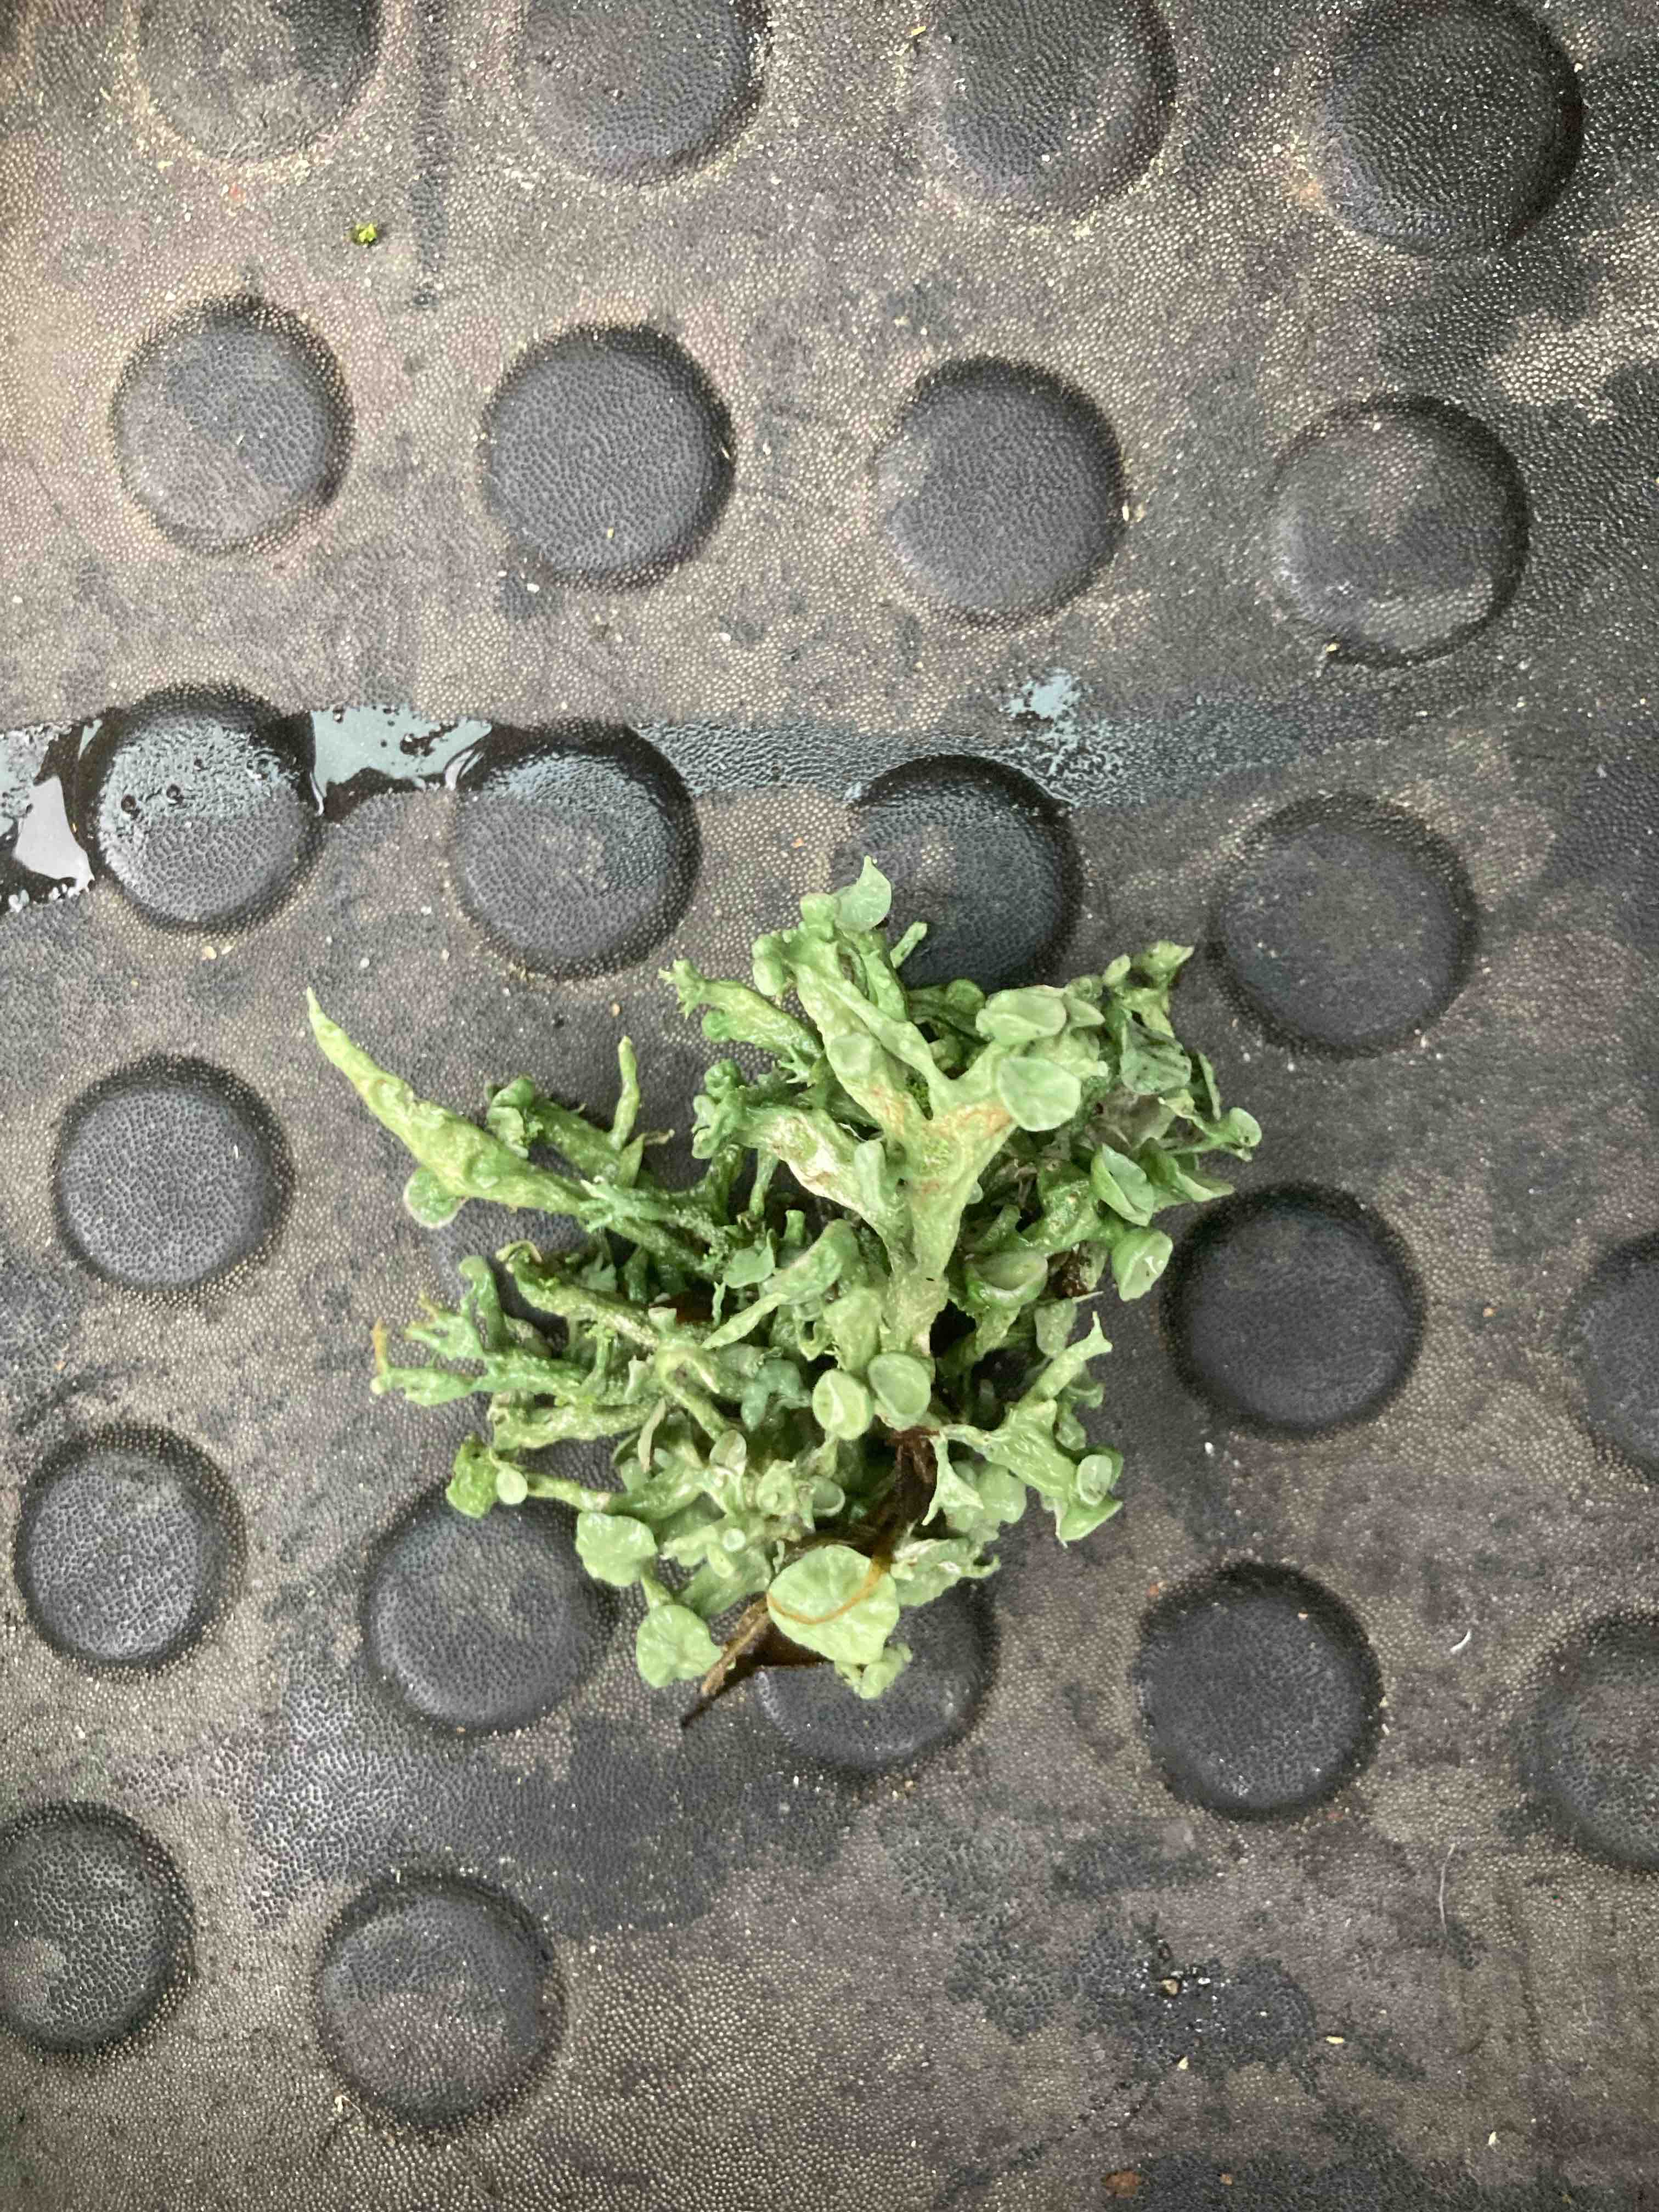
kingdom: Fungi
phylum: Ascomycota
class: Lecanoromycetes
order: Lecanorales
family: Ramalinaceae
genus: Ramalina
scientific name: Ramalina fastigiata
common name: tue-grenlav
